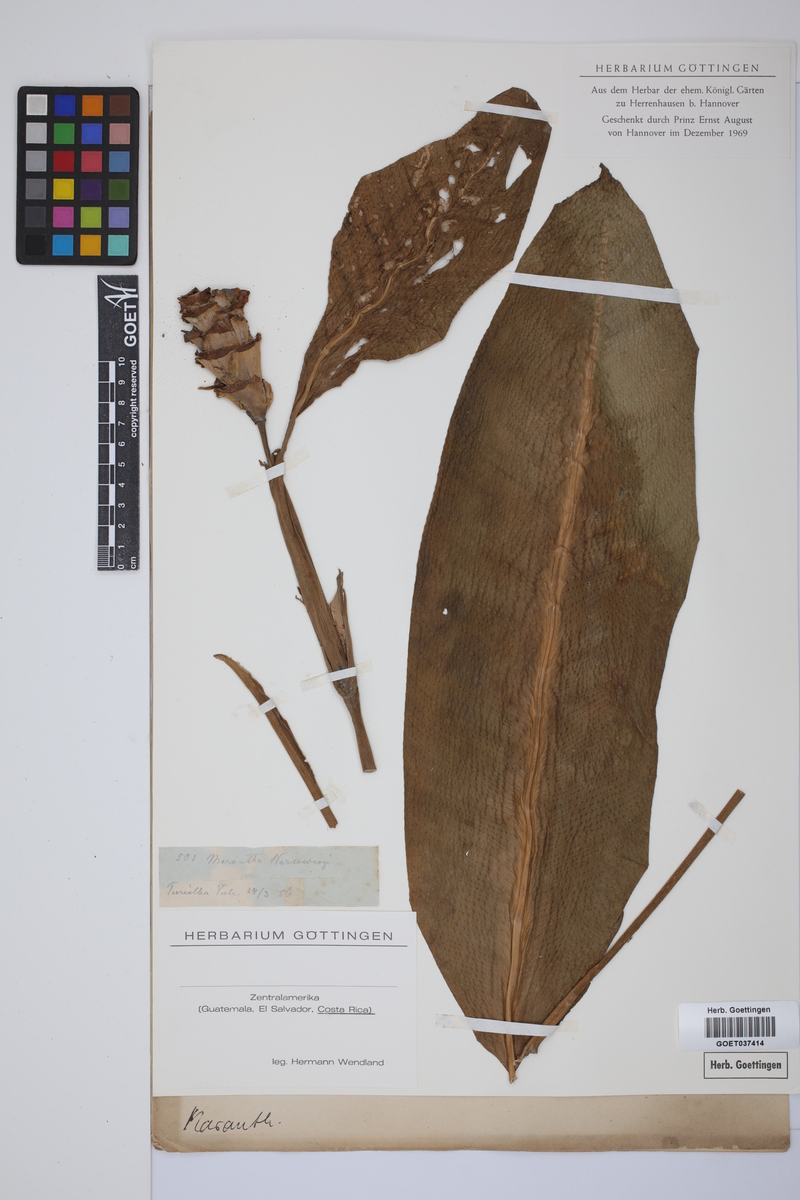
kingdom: Plantae
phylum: Tracheophyta
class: Liliopsida
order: Zingiberales
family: Marantaceae
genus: Goeppertia
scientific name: Goeppertia warszewiczii
